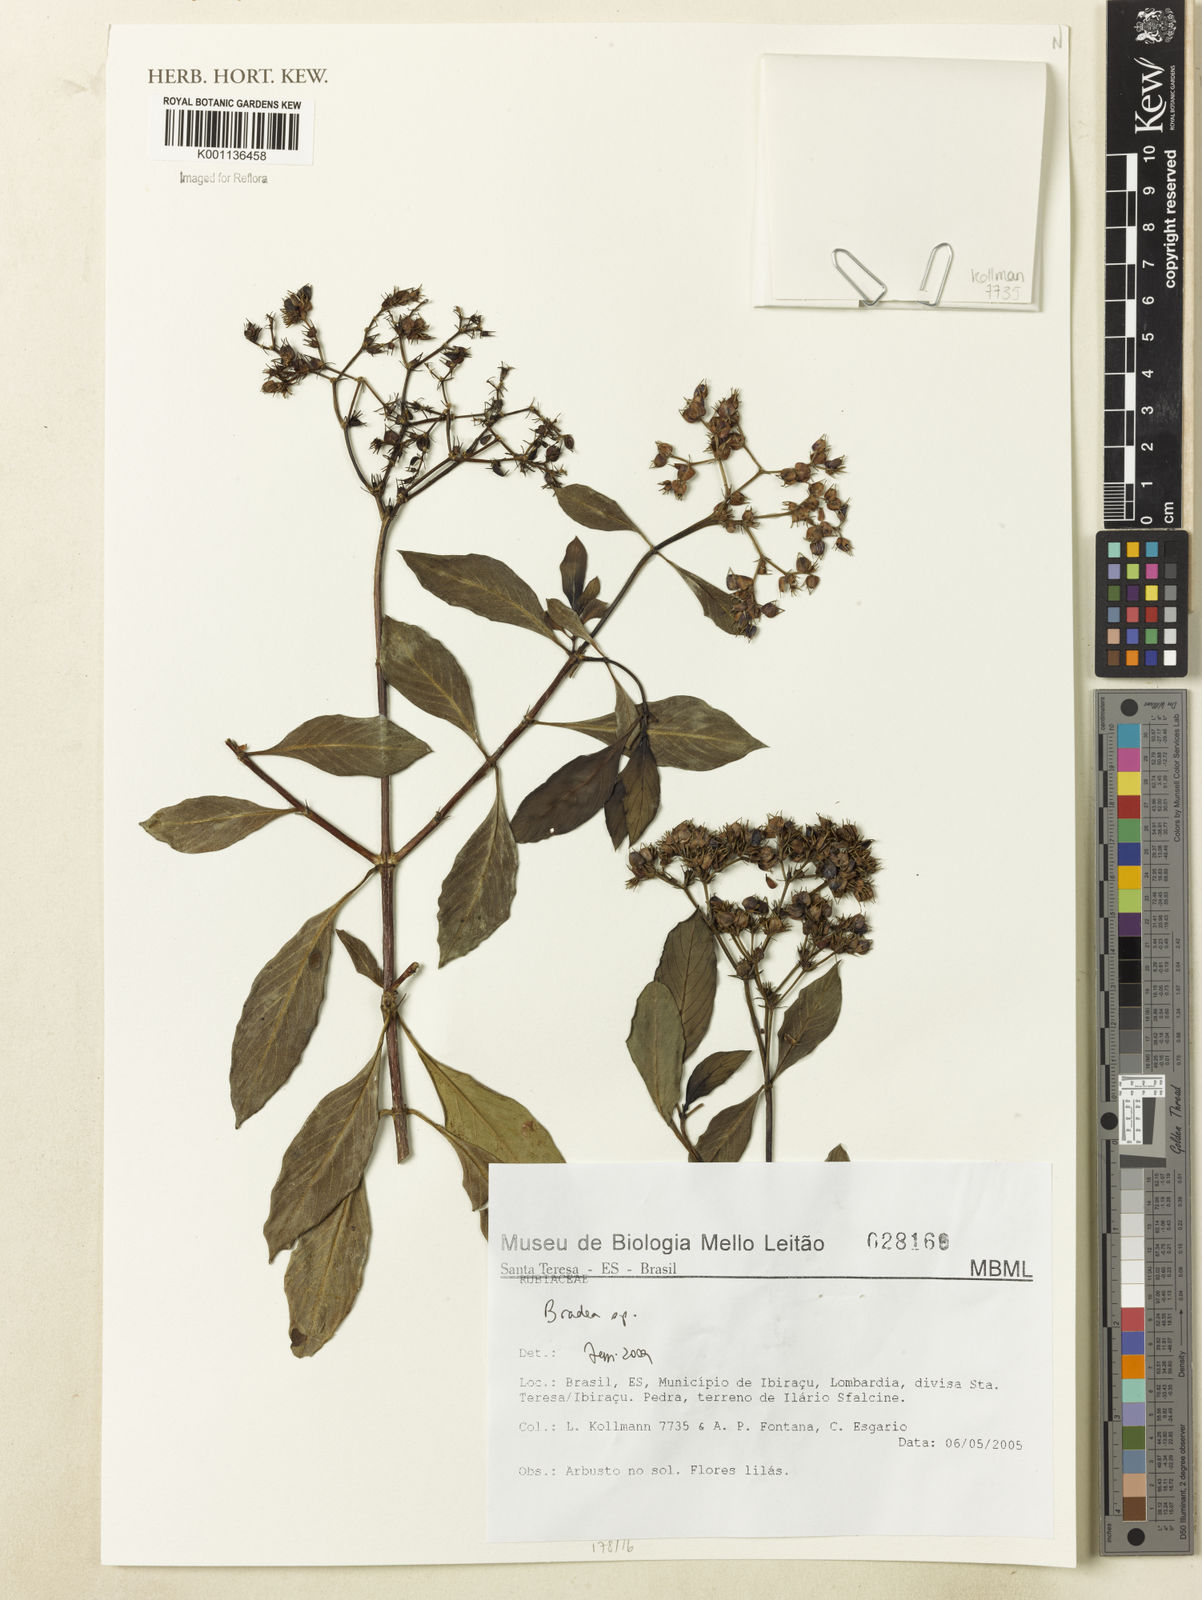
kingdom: Plantae
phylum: Tracheophyta
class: Magnoliopsida
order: Gentianales
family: Rubiaceae
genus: Bradea
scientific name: Bradea
